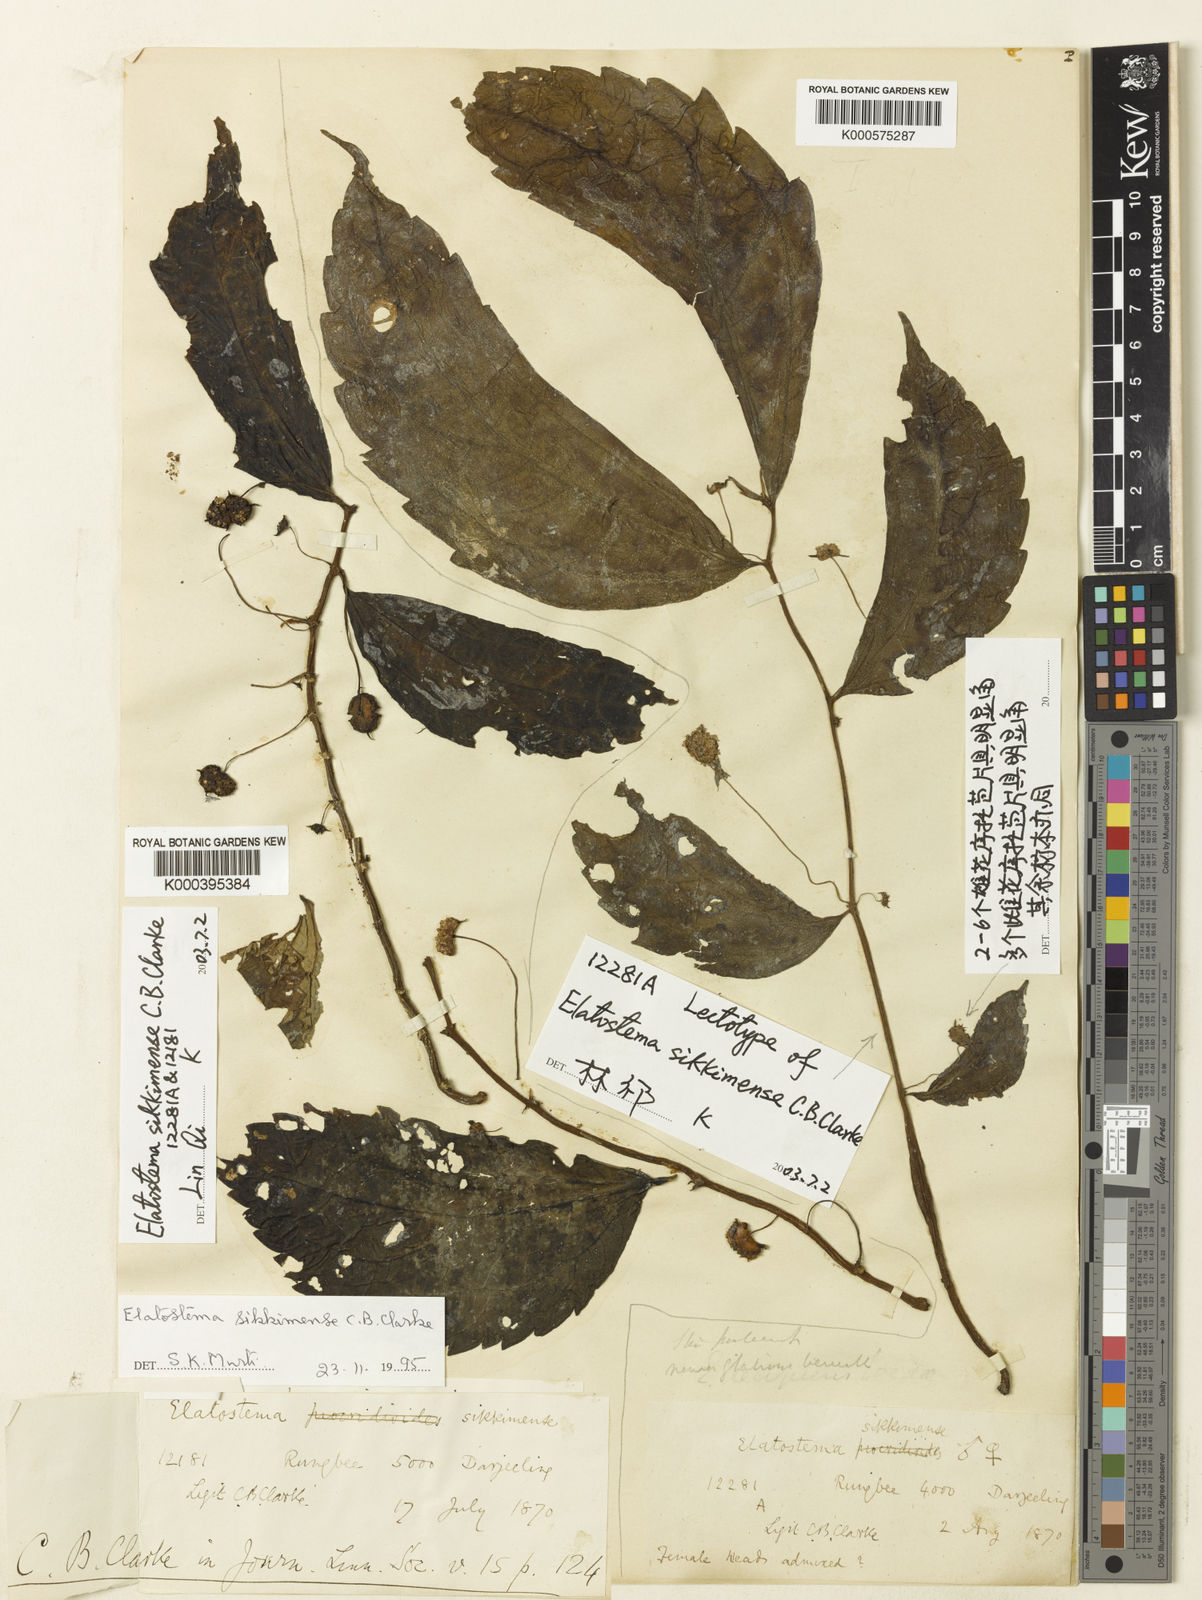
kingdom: Plantae
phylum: Tracheophyta
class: Magnoliopsida
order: Rosales
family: Urticaceae
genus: Elatostema
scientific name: Elatostema sikkimense
